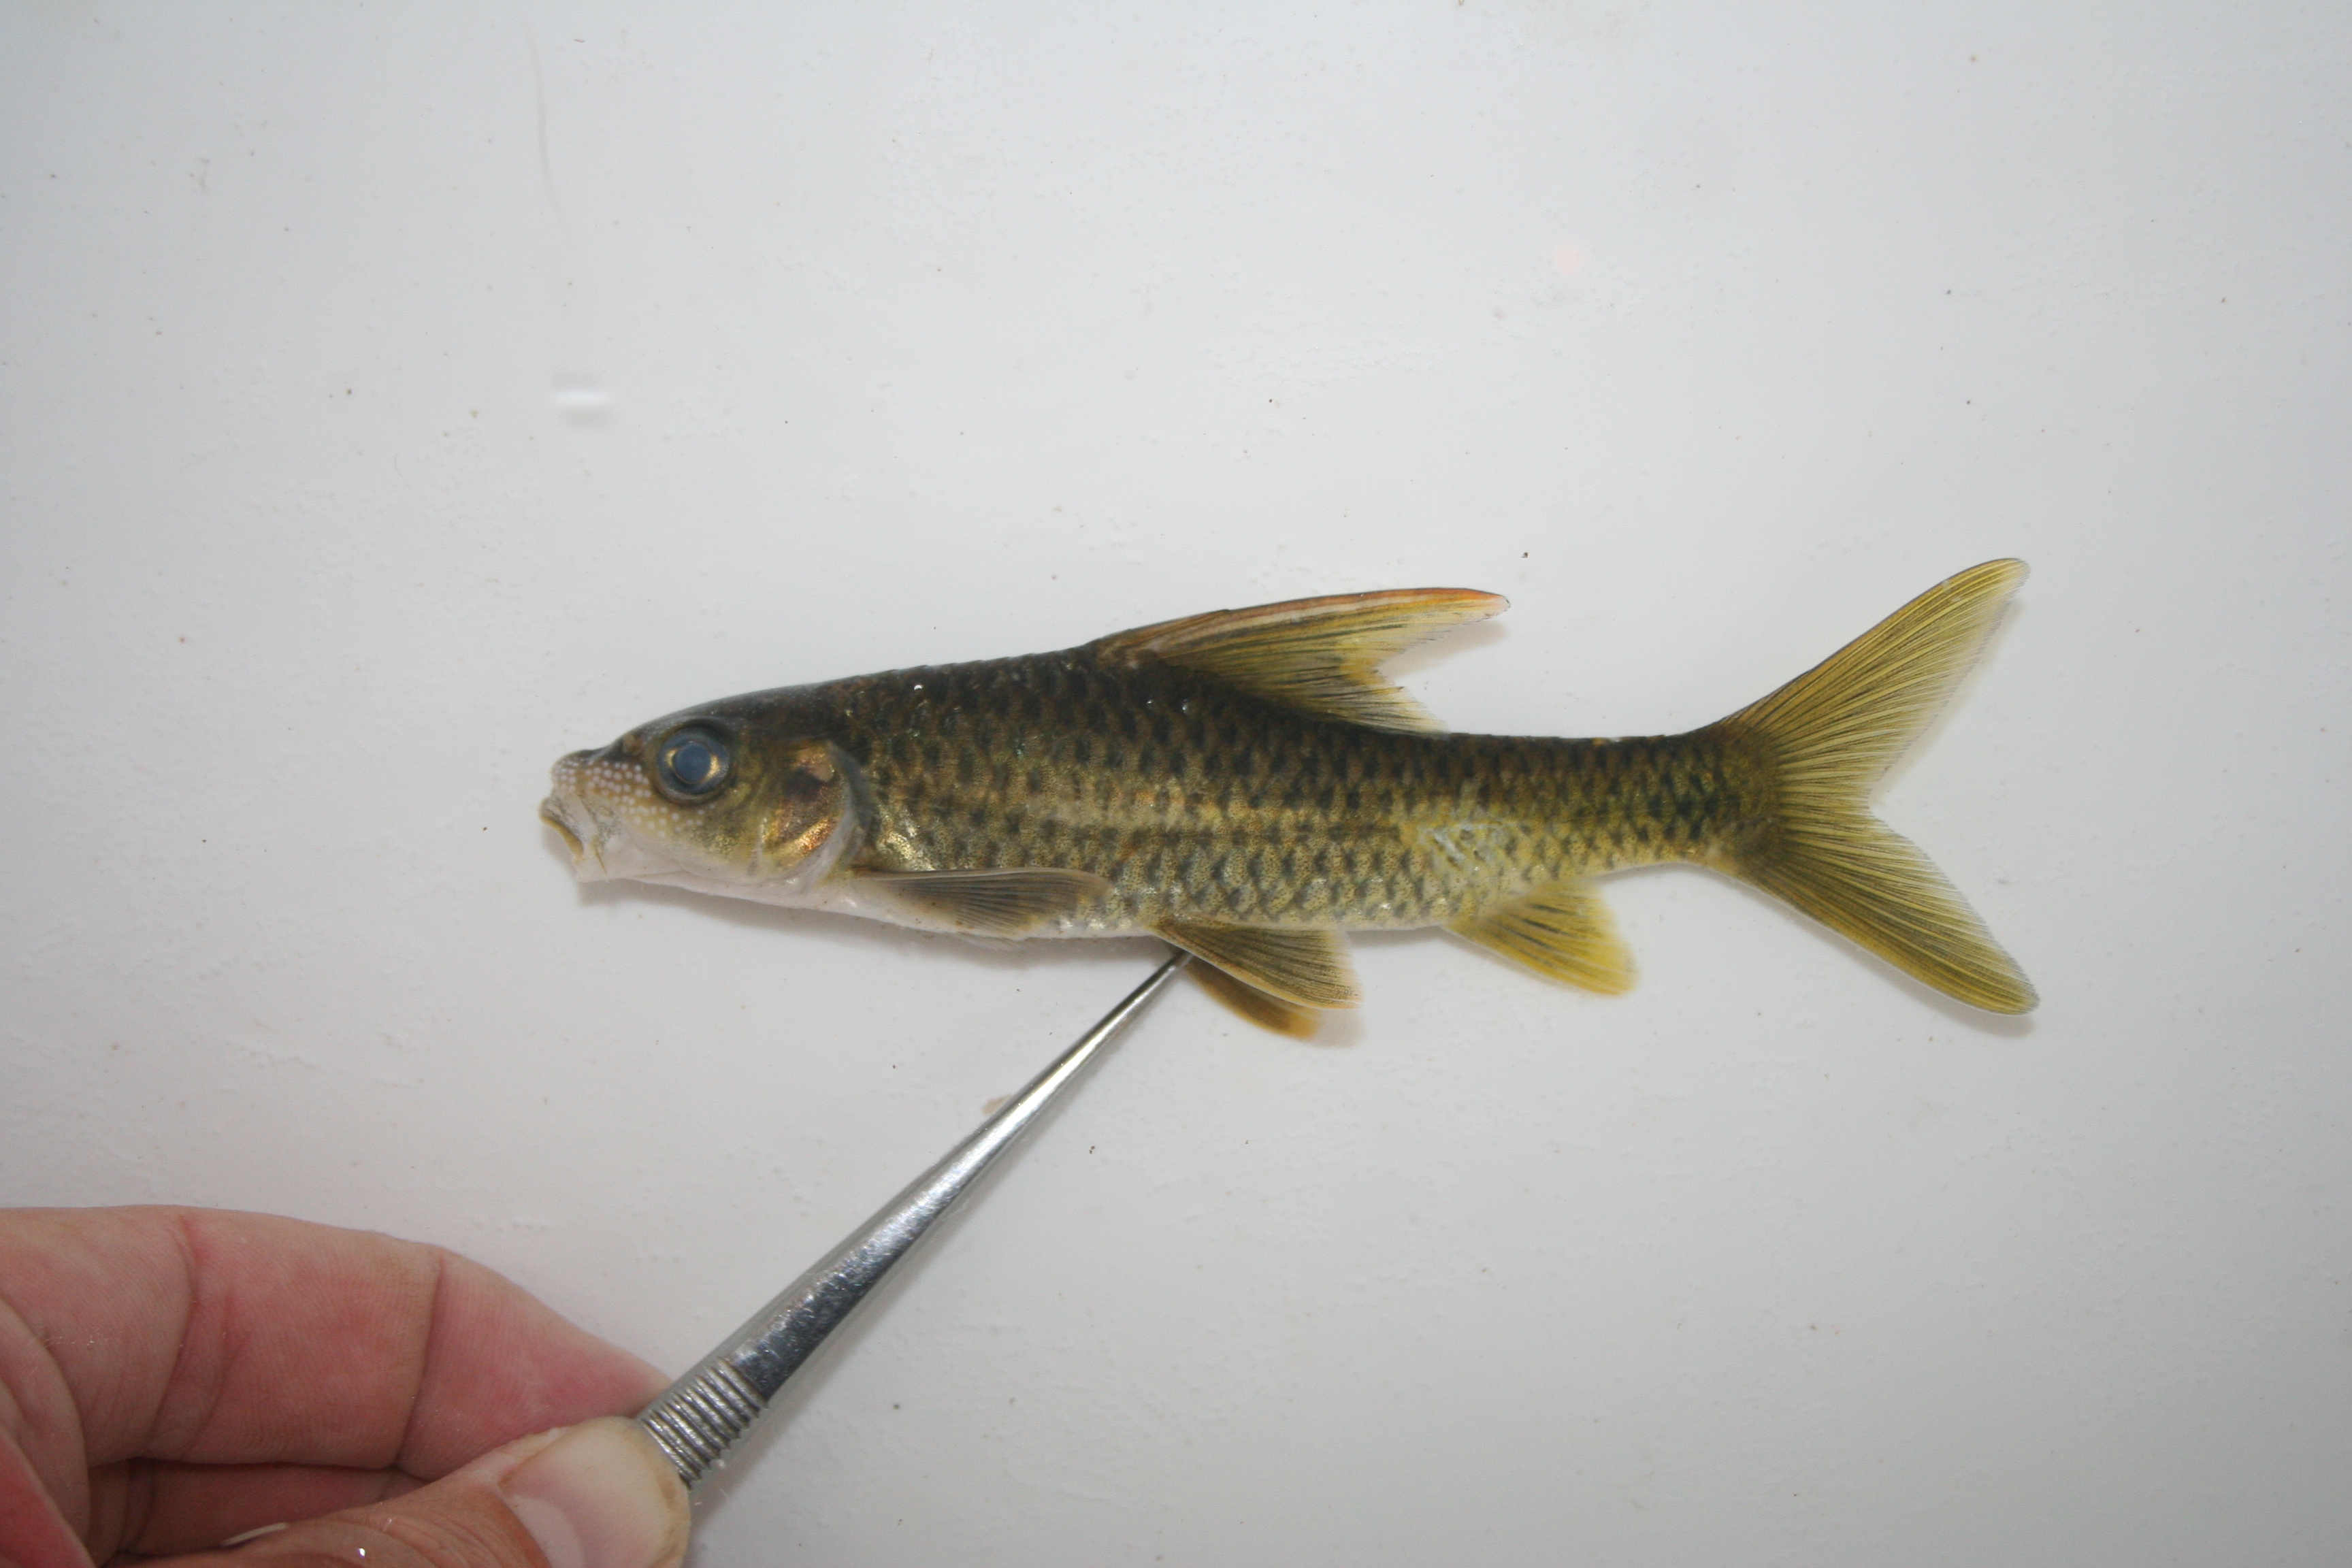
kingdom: Animalia
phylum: Chordata
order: Cypriniformes
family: Cyprinidae
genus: Labeobarbus
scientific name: Labeobarbus rosae
